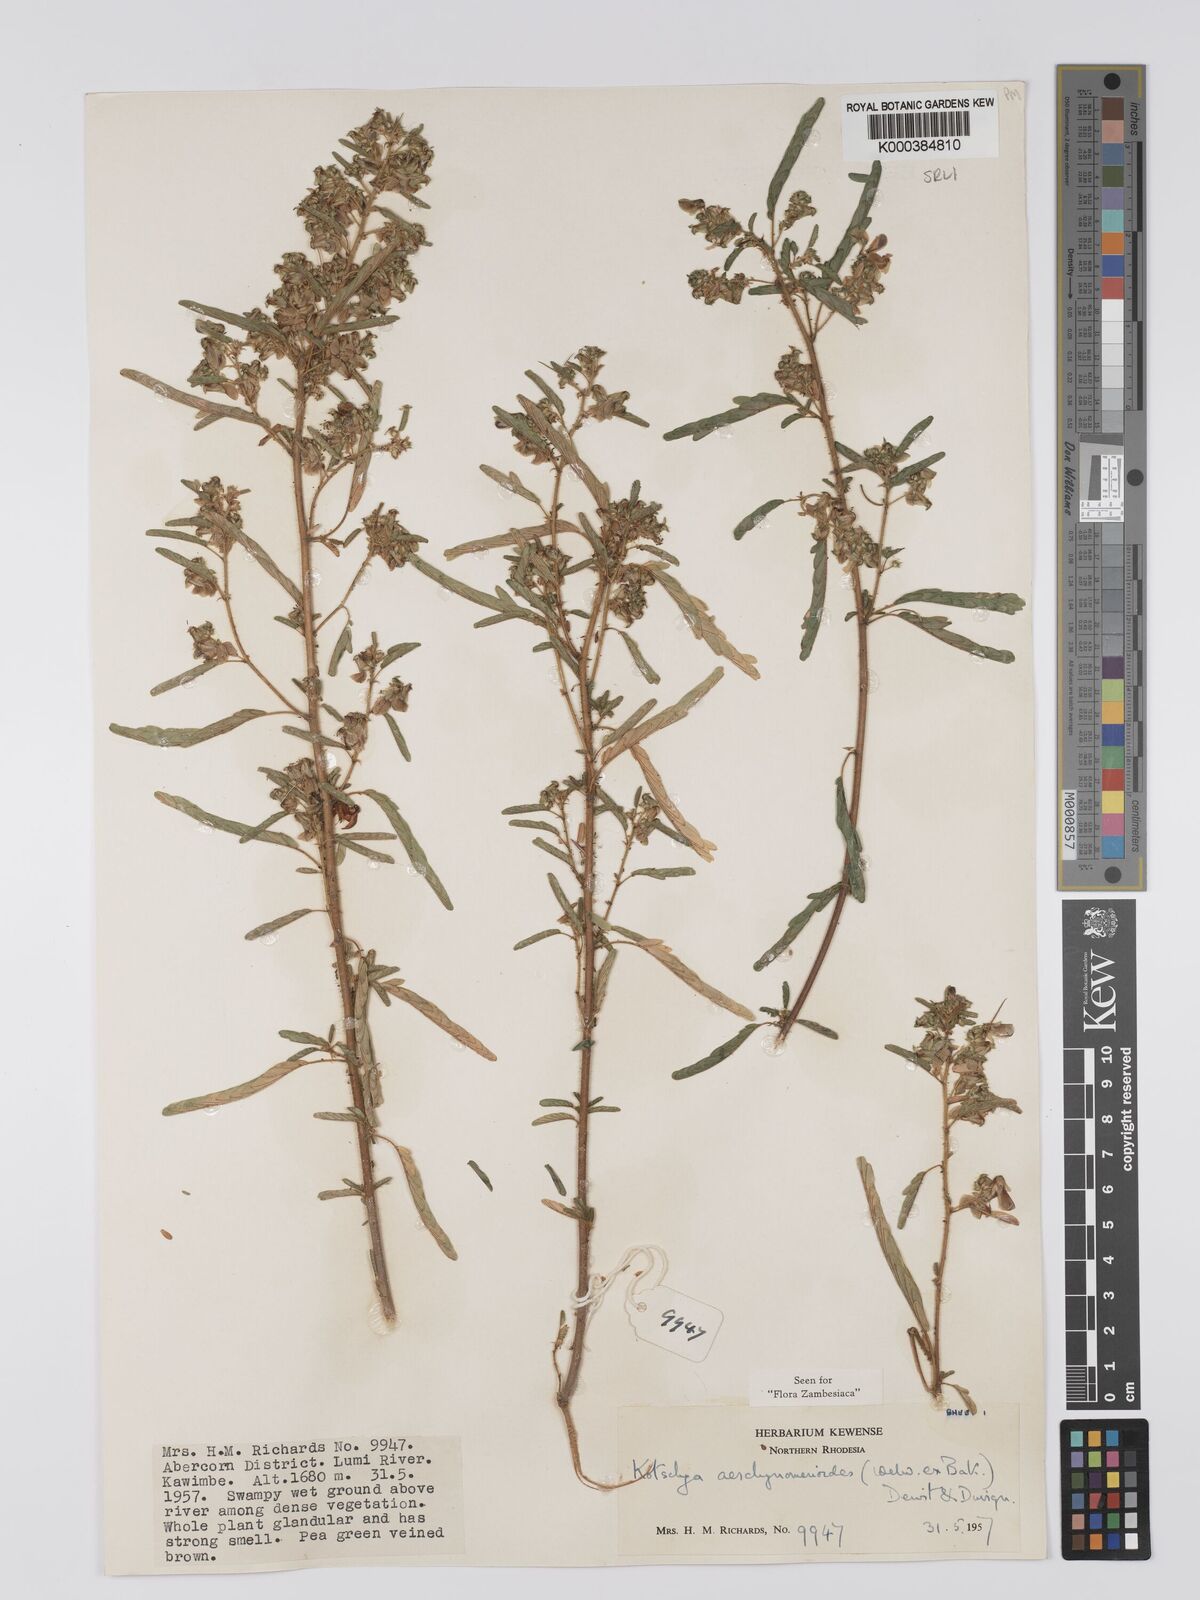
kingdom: Plantae
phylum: Tracheophyta
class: Magnoliopsida
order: Fabales
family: Fabaceae
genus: Kotschya
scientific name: Kotschya aeschynomenoides
